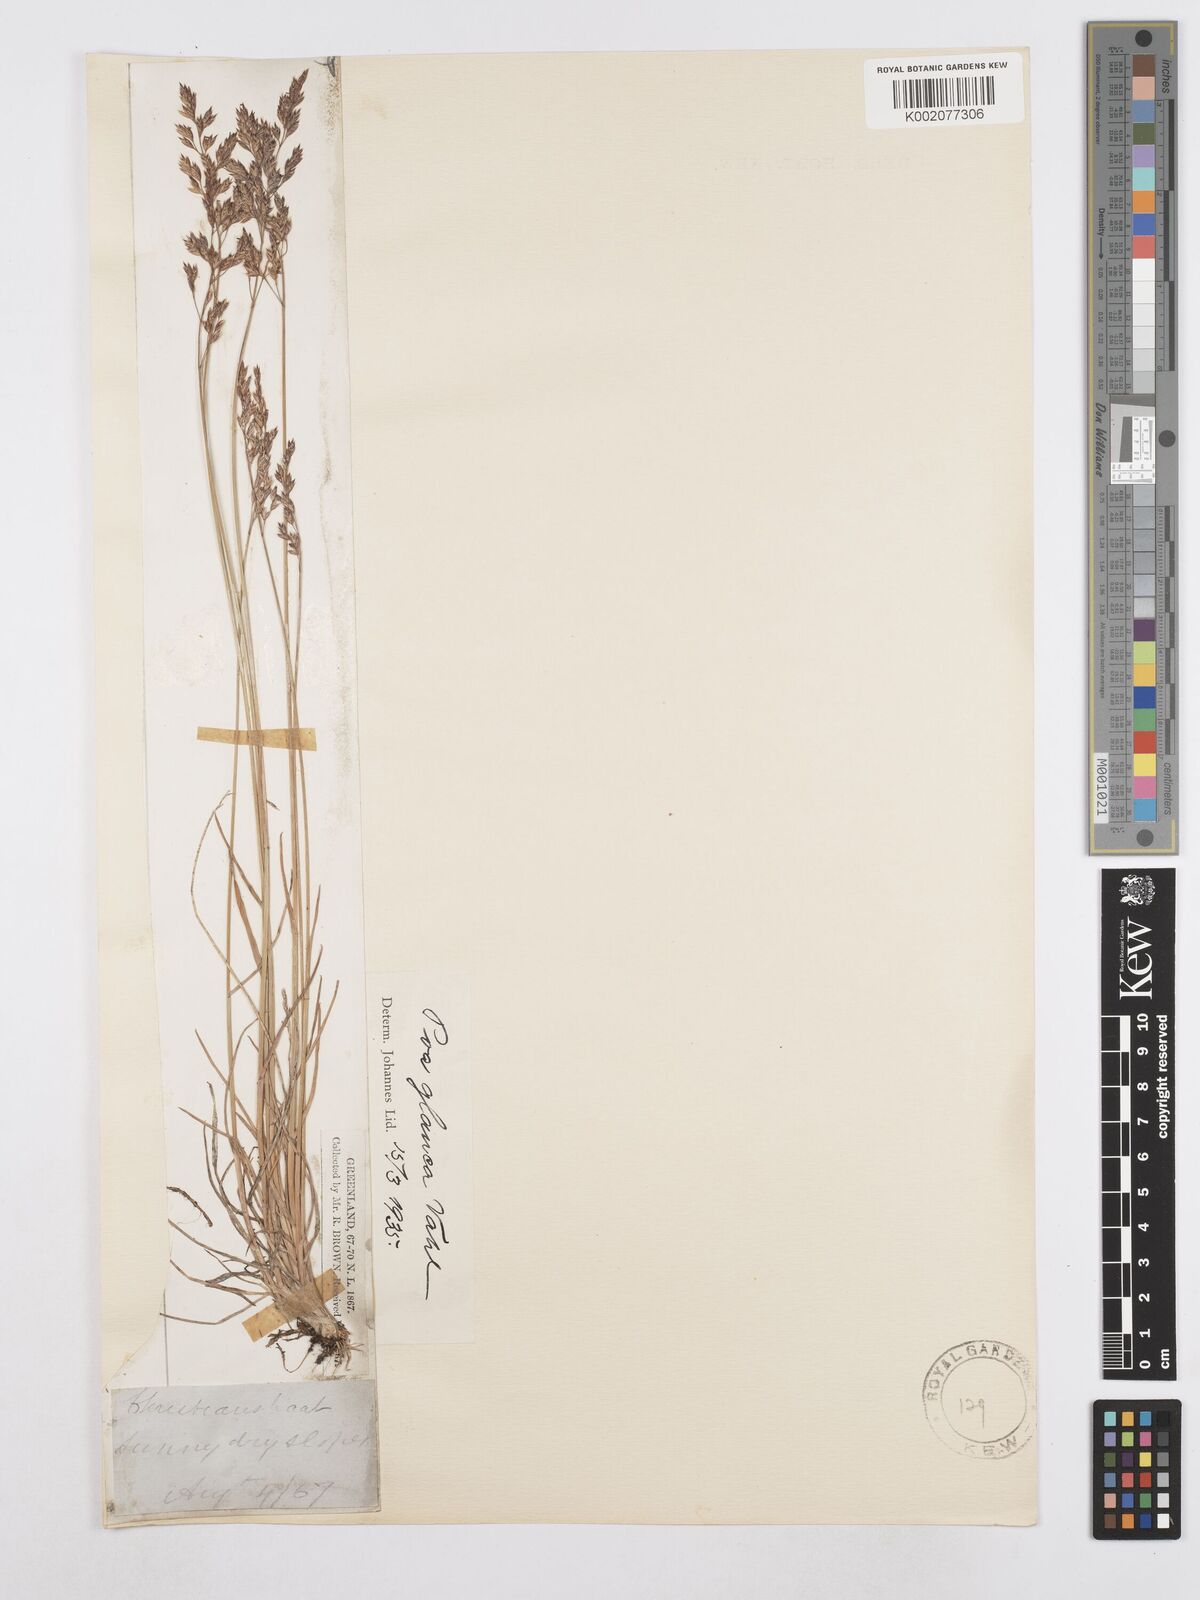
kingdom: Plantae
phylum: Tracheophyta
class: Liliopsida
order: Poales
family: Poaceae
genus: Poa
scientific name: Poa glauca
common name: Glaucous bluegrass
